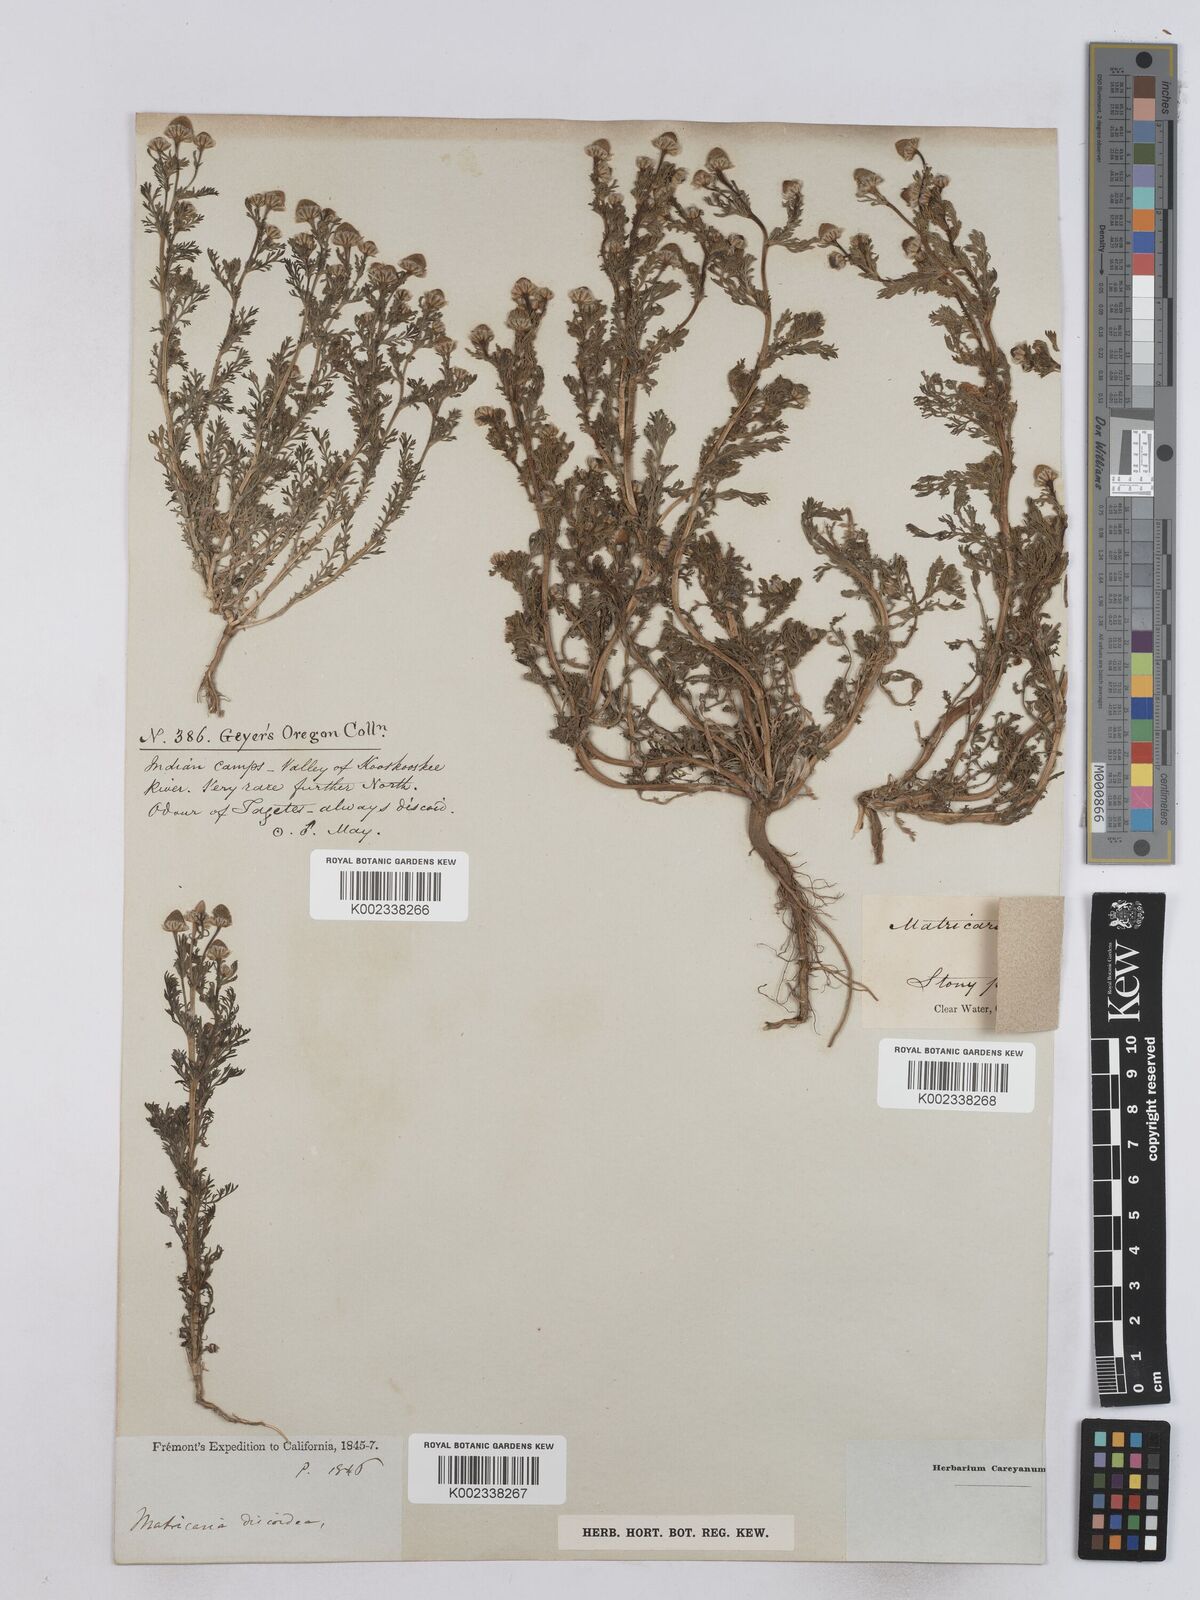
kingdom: Plantae
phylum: Tracheophyta
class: Magnoliopsida
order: Asterales
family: Asteraceae
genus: Matricaria
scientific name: Matricaria
